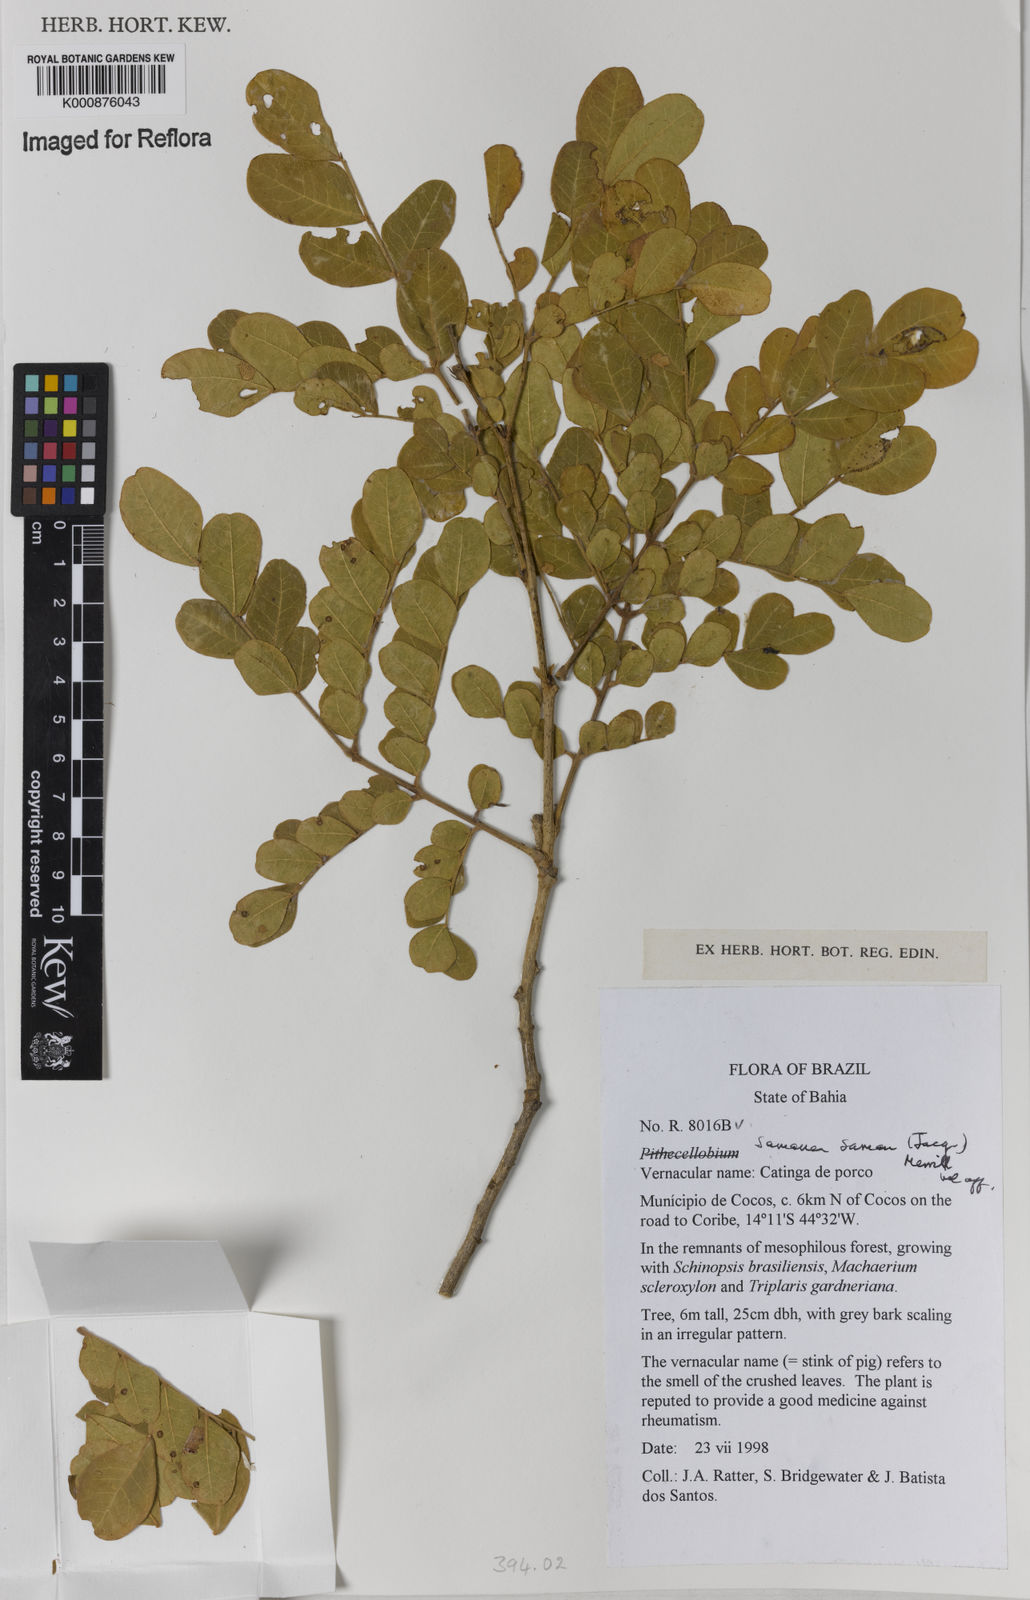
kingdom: Plantae
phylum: Tracheophyta
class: Magnoliopsida
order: Fabales
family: Fabaceae
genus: Samanea
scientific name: Samanea saman
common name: Raintree
